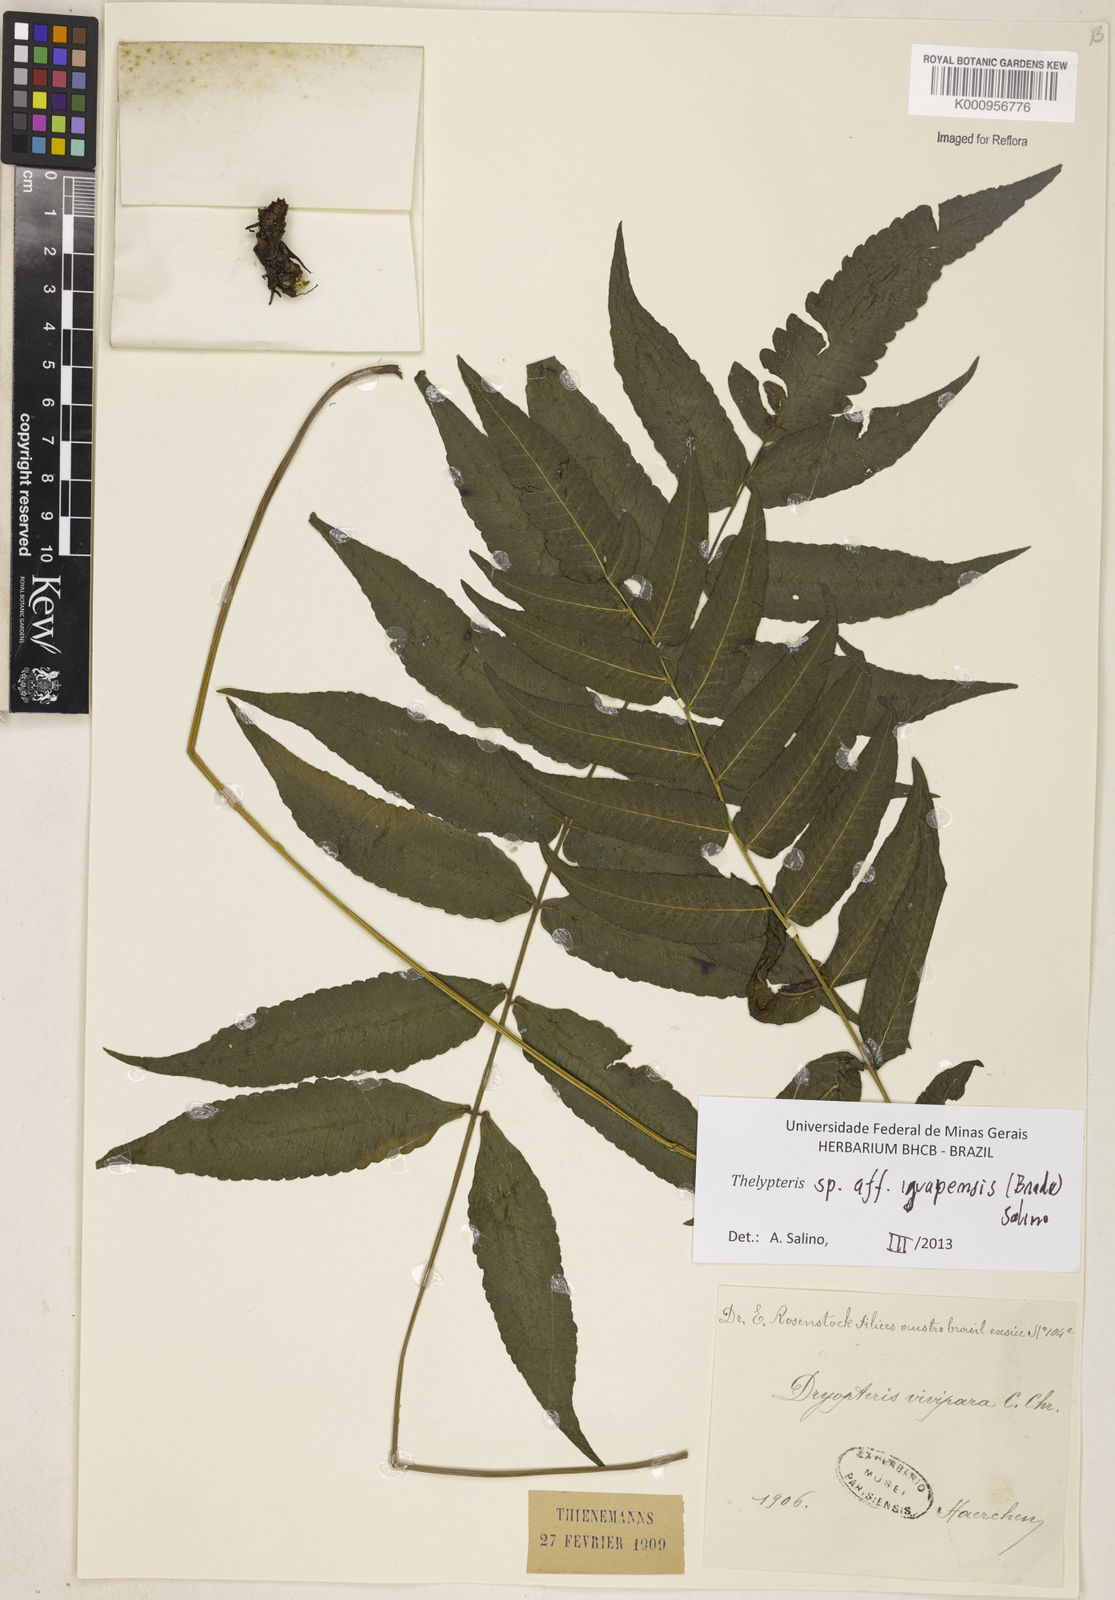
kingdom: Plantae
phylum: Tracheophyta
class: Polypodiopsida
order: Polypodiales
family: Thelypteridaceae
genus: Goniopteris
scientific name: Goniopteris iguapensis
